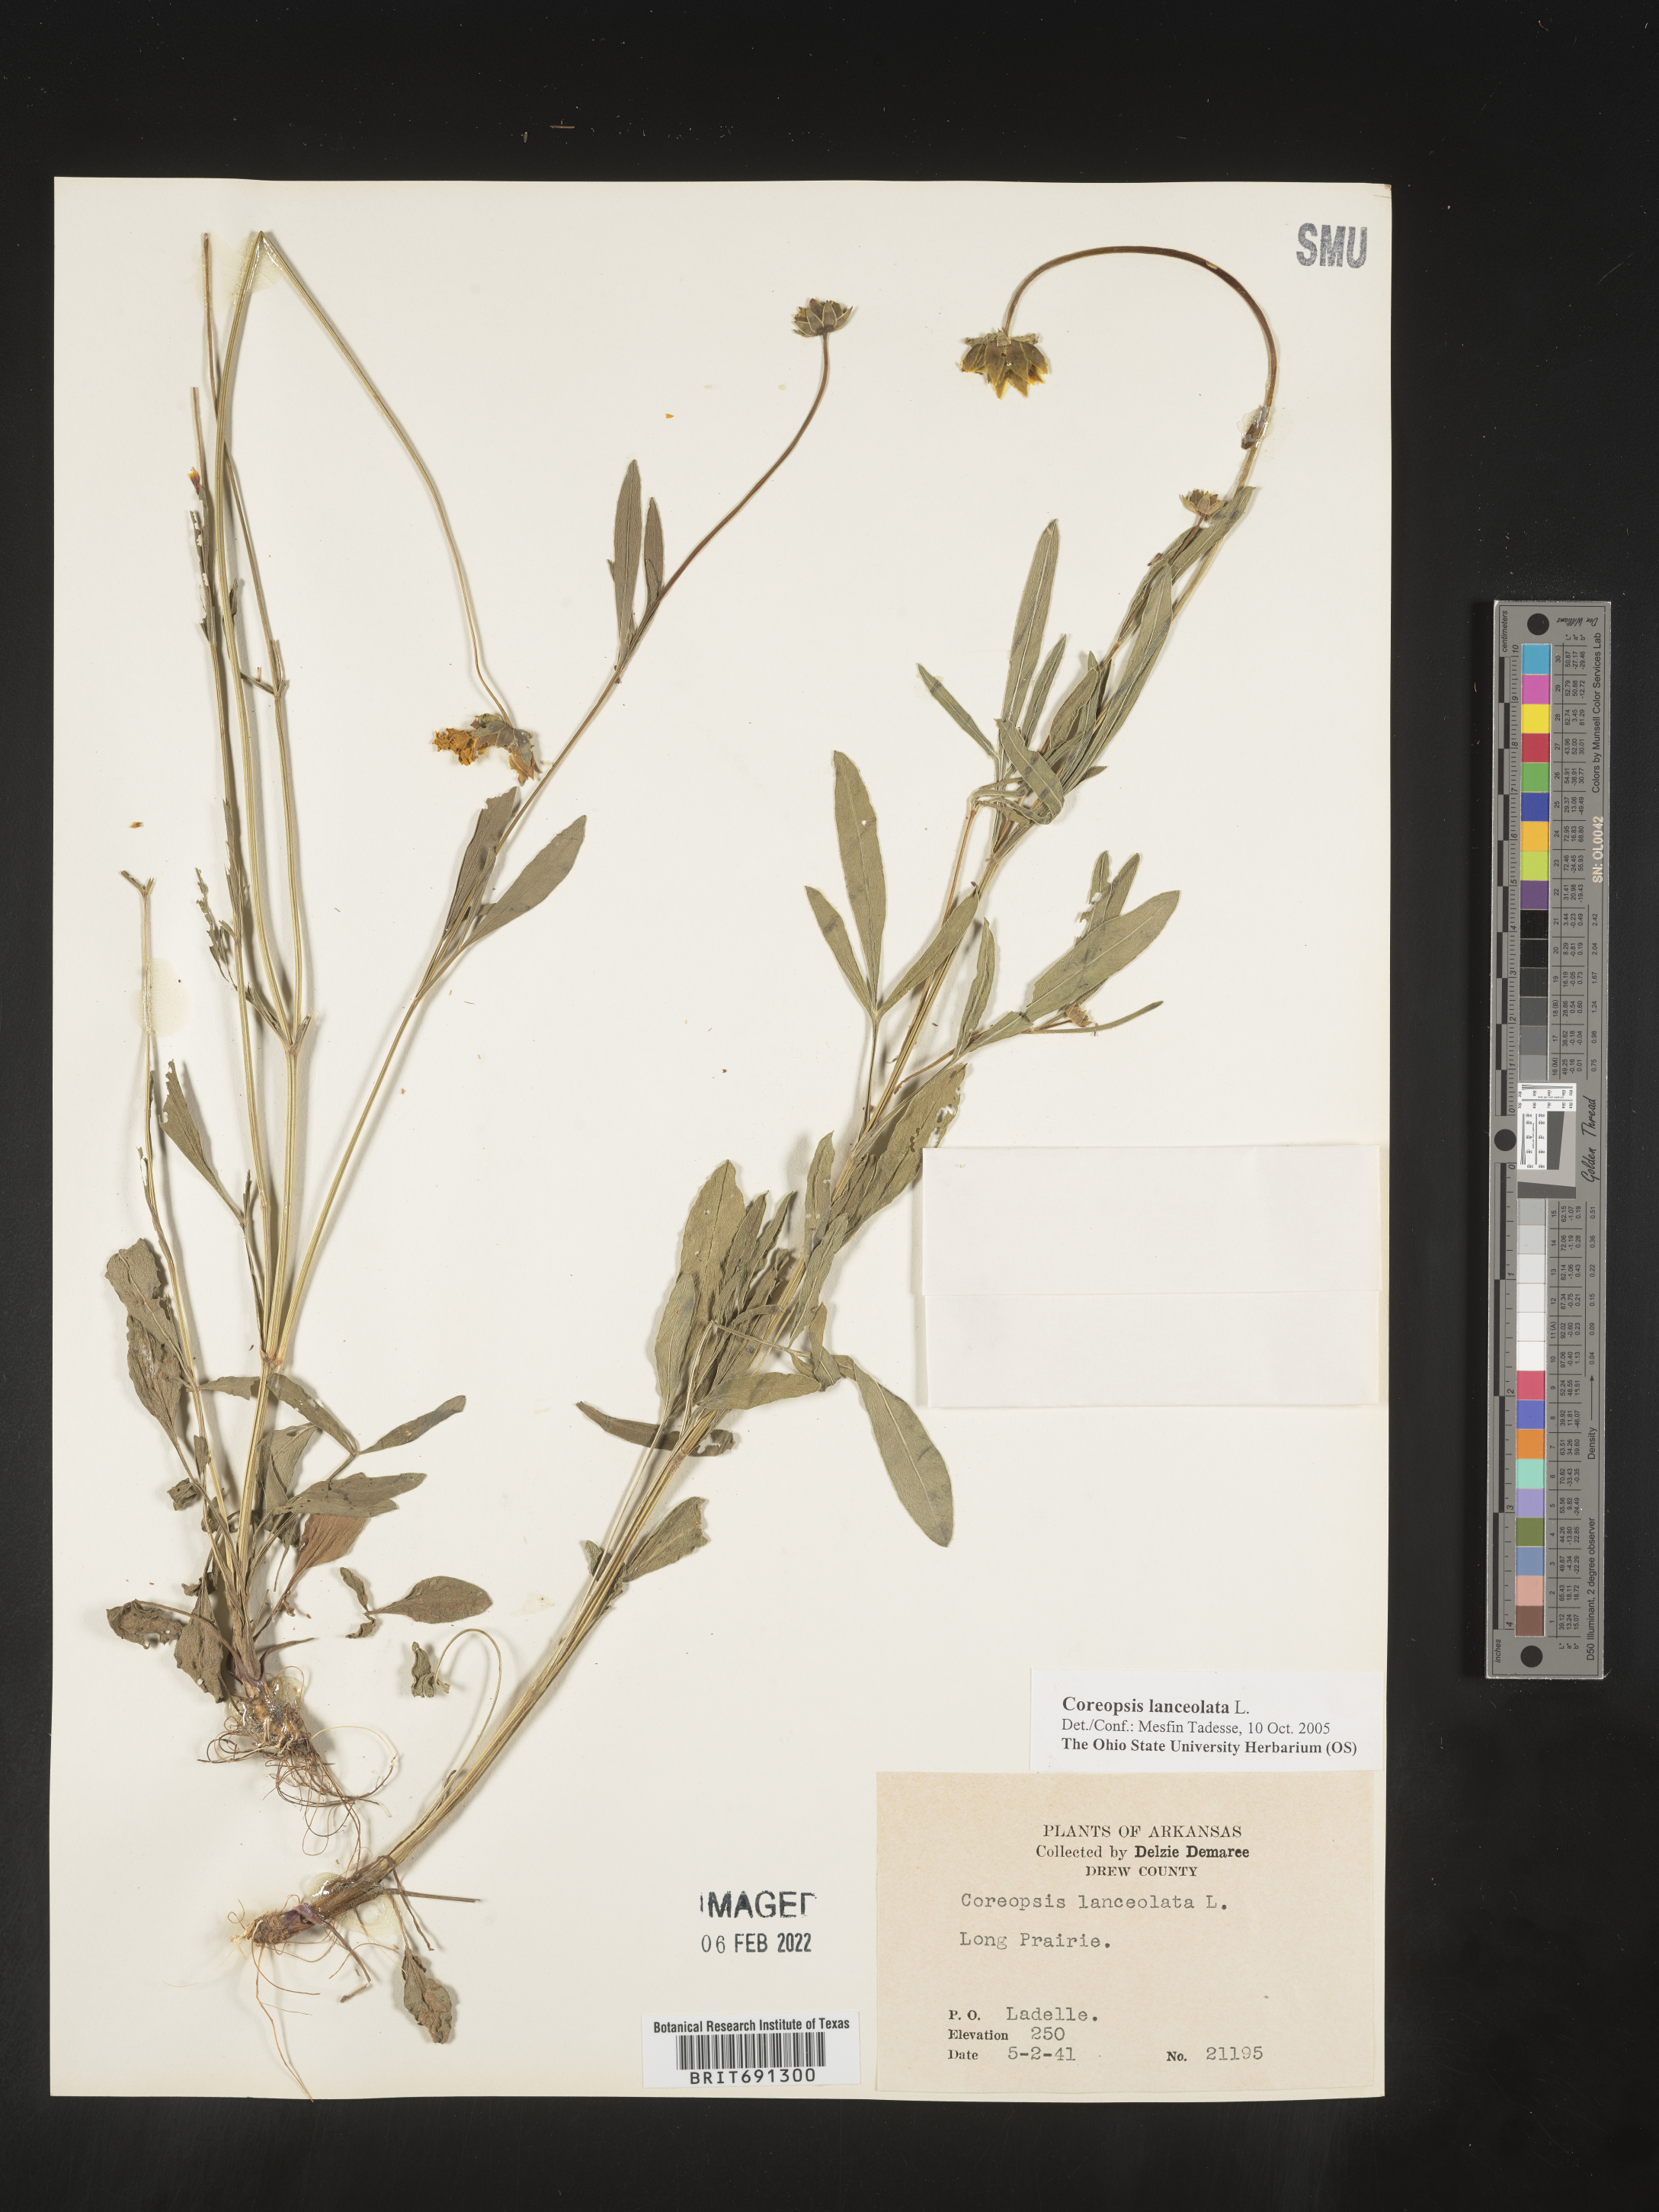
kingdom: Plantae
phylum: Tracheophyta
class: Magnoliopsida
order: Asterales
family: Asteraceae
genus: Coreopsis
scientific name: Coreopsis lanceolata
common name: Garden coreopsis
